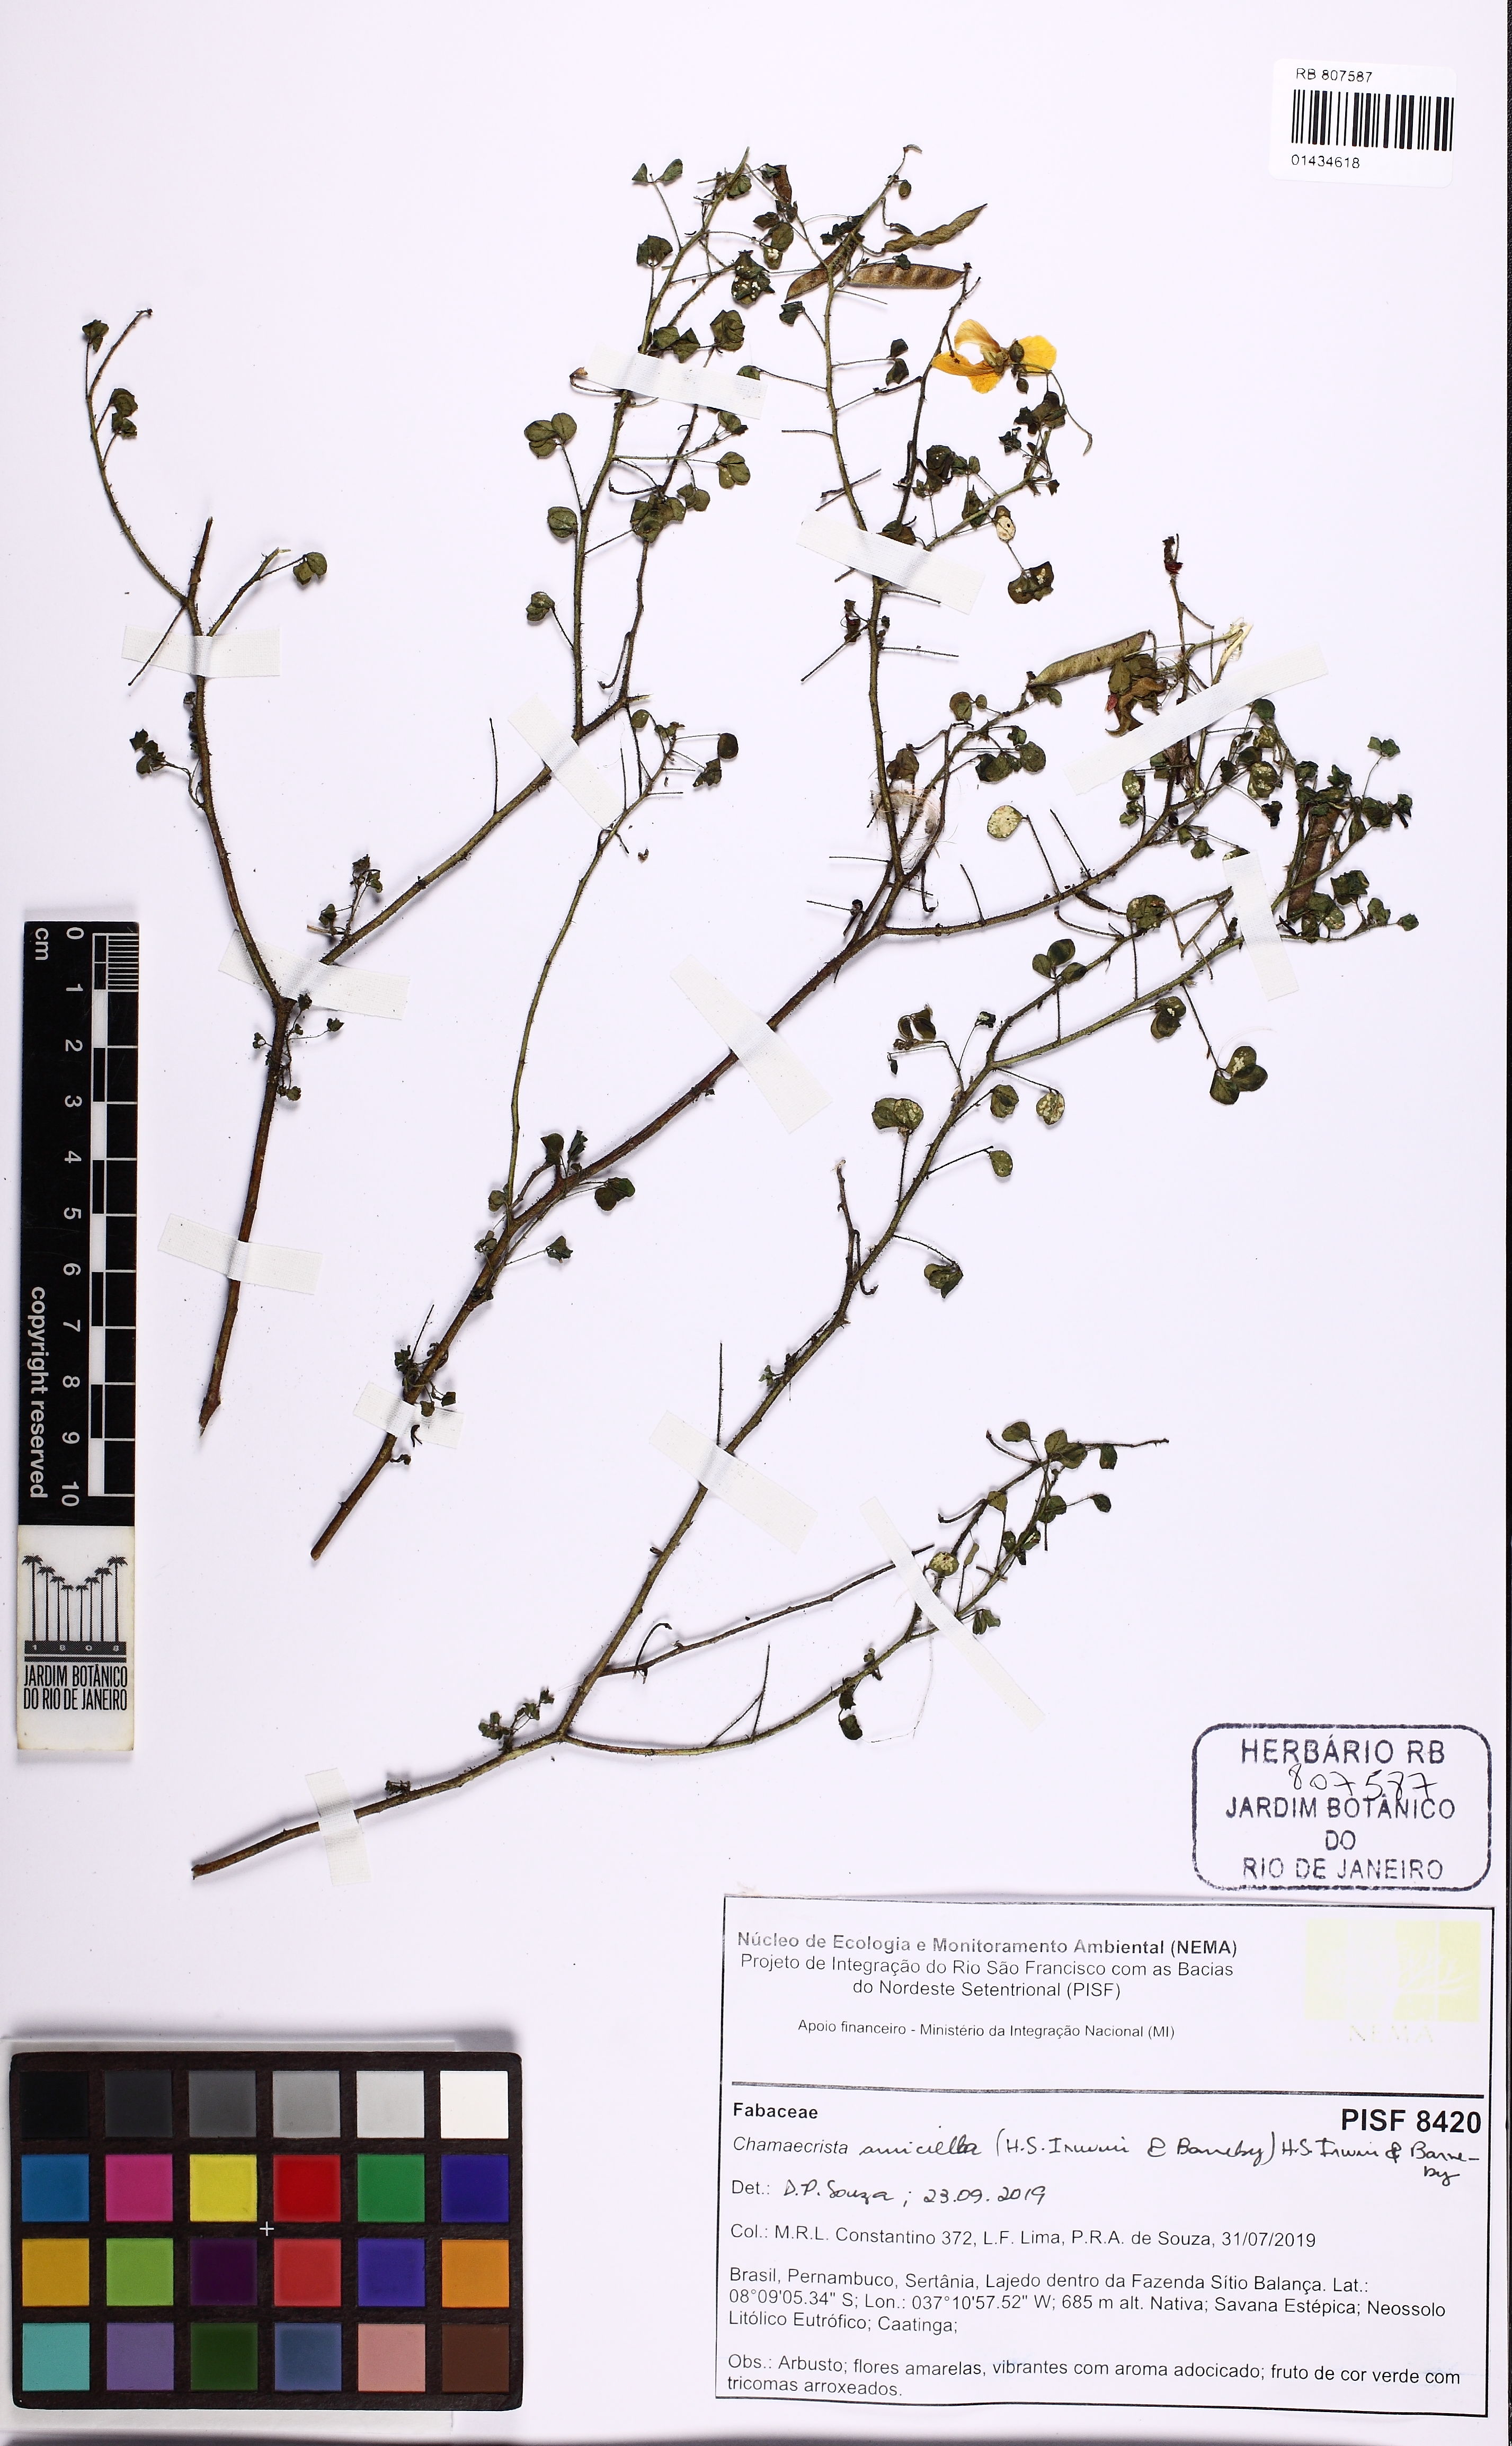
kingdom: Plantae
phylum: Tracheophyta
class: Magnoliopsida
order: Fabales
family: Fabaceae
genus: Chamaecrista
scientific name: Chamaecrista amiciella
